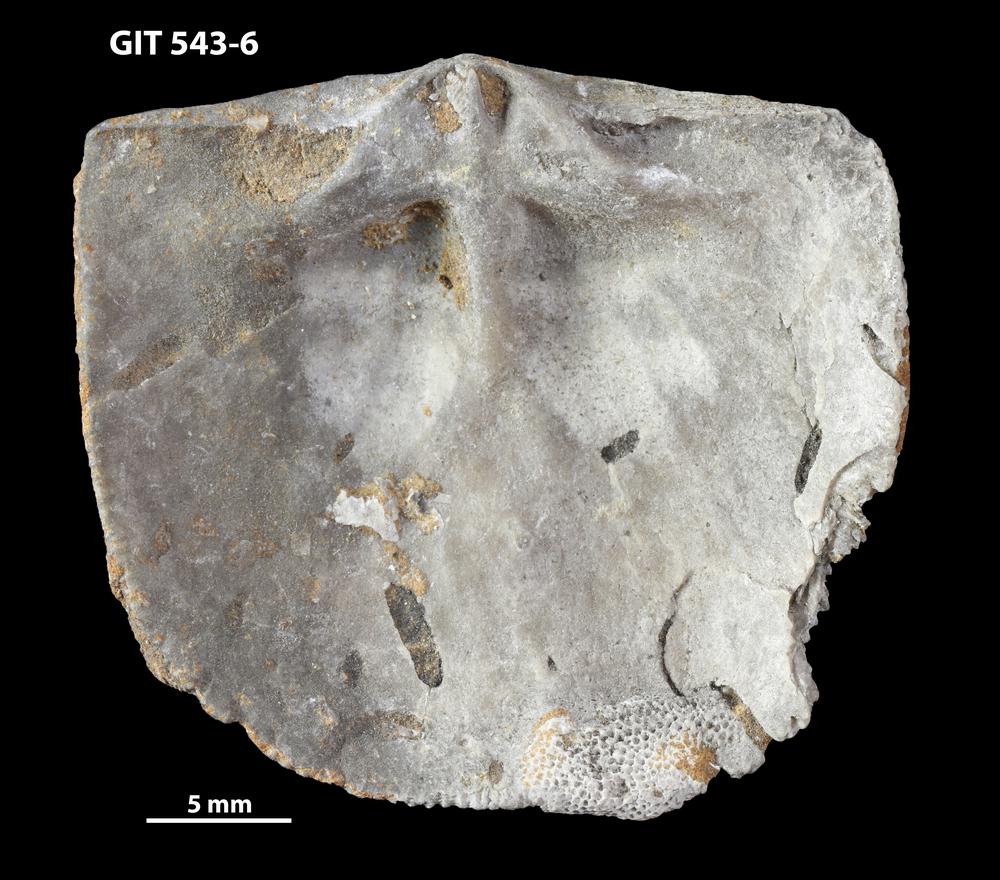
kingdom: Animalia
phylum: Brachiopoda
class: Rhynchonellata
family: Clitambonitidae
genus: Clitambonites
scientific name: Clitambonites
